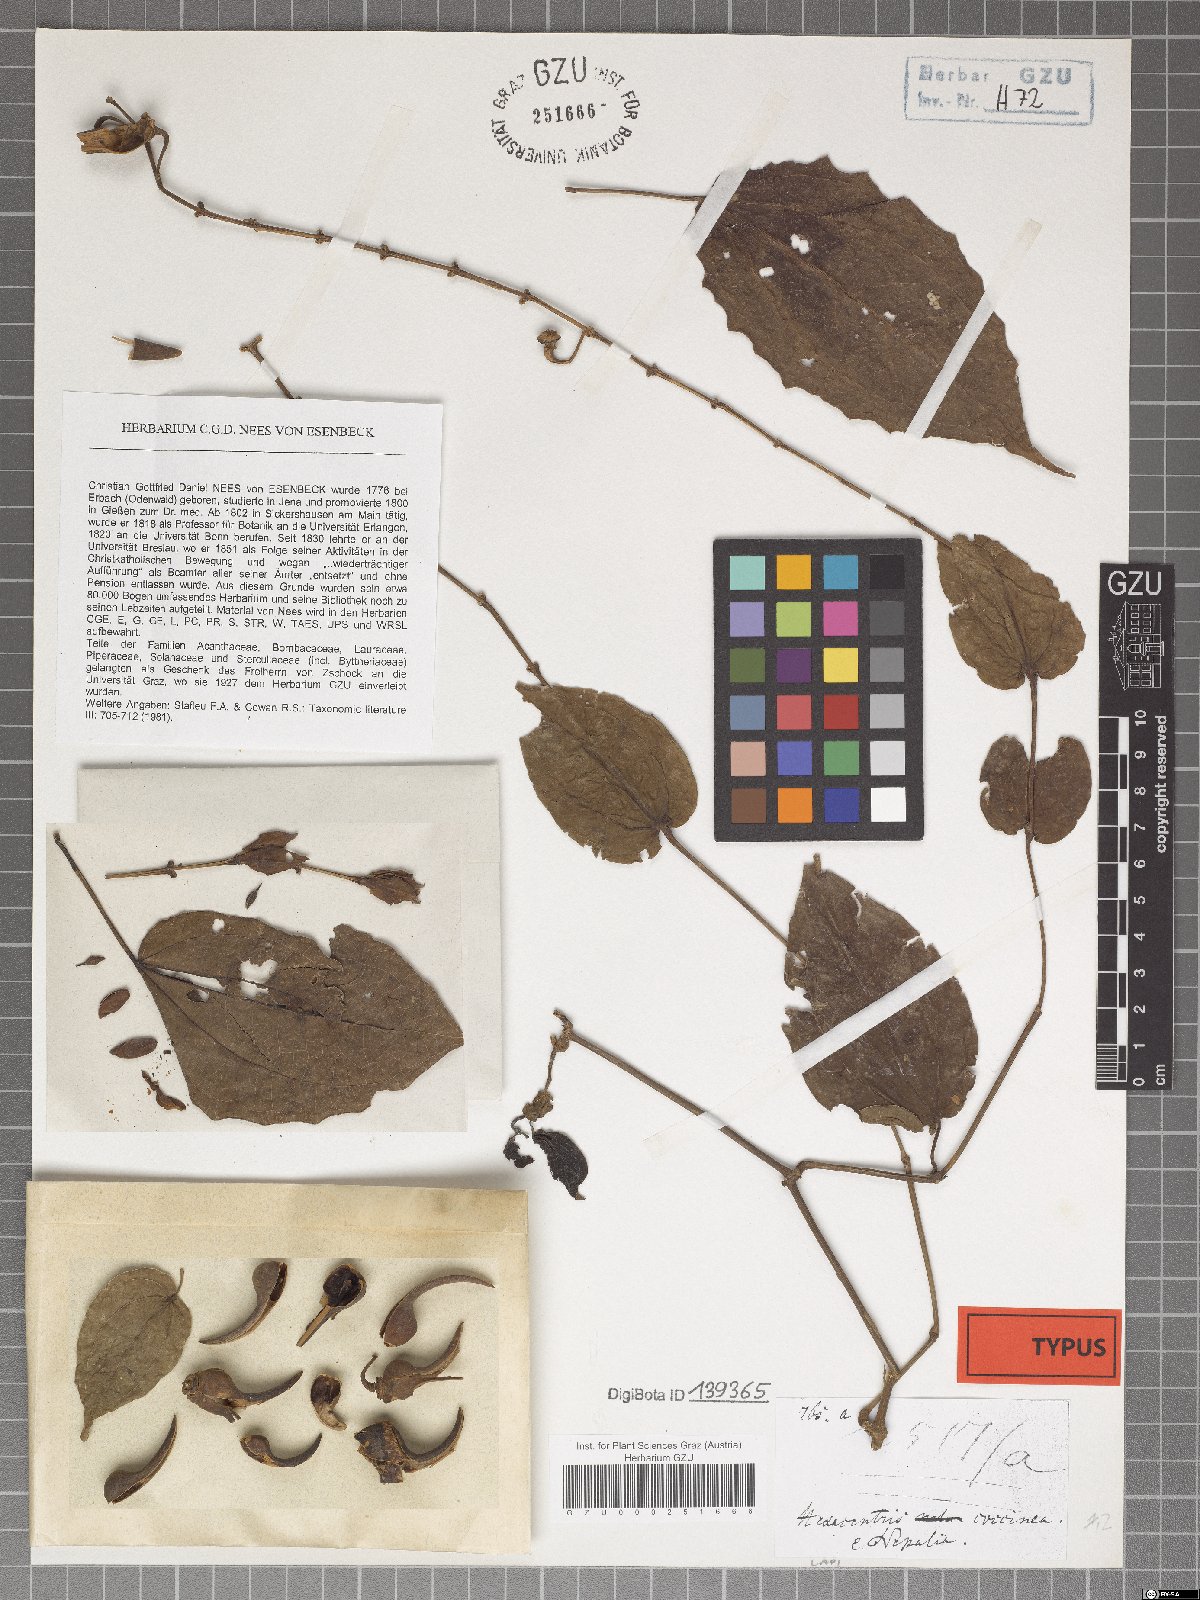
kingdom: Plantae
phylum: Tracheophyta
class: Magnoliopsida
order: Lamiales
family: Acanthaceae
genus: Thunbergia
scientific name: Thunbergia coccinea
